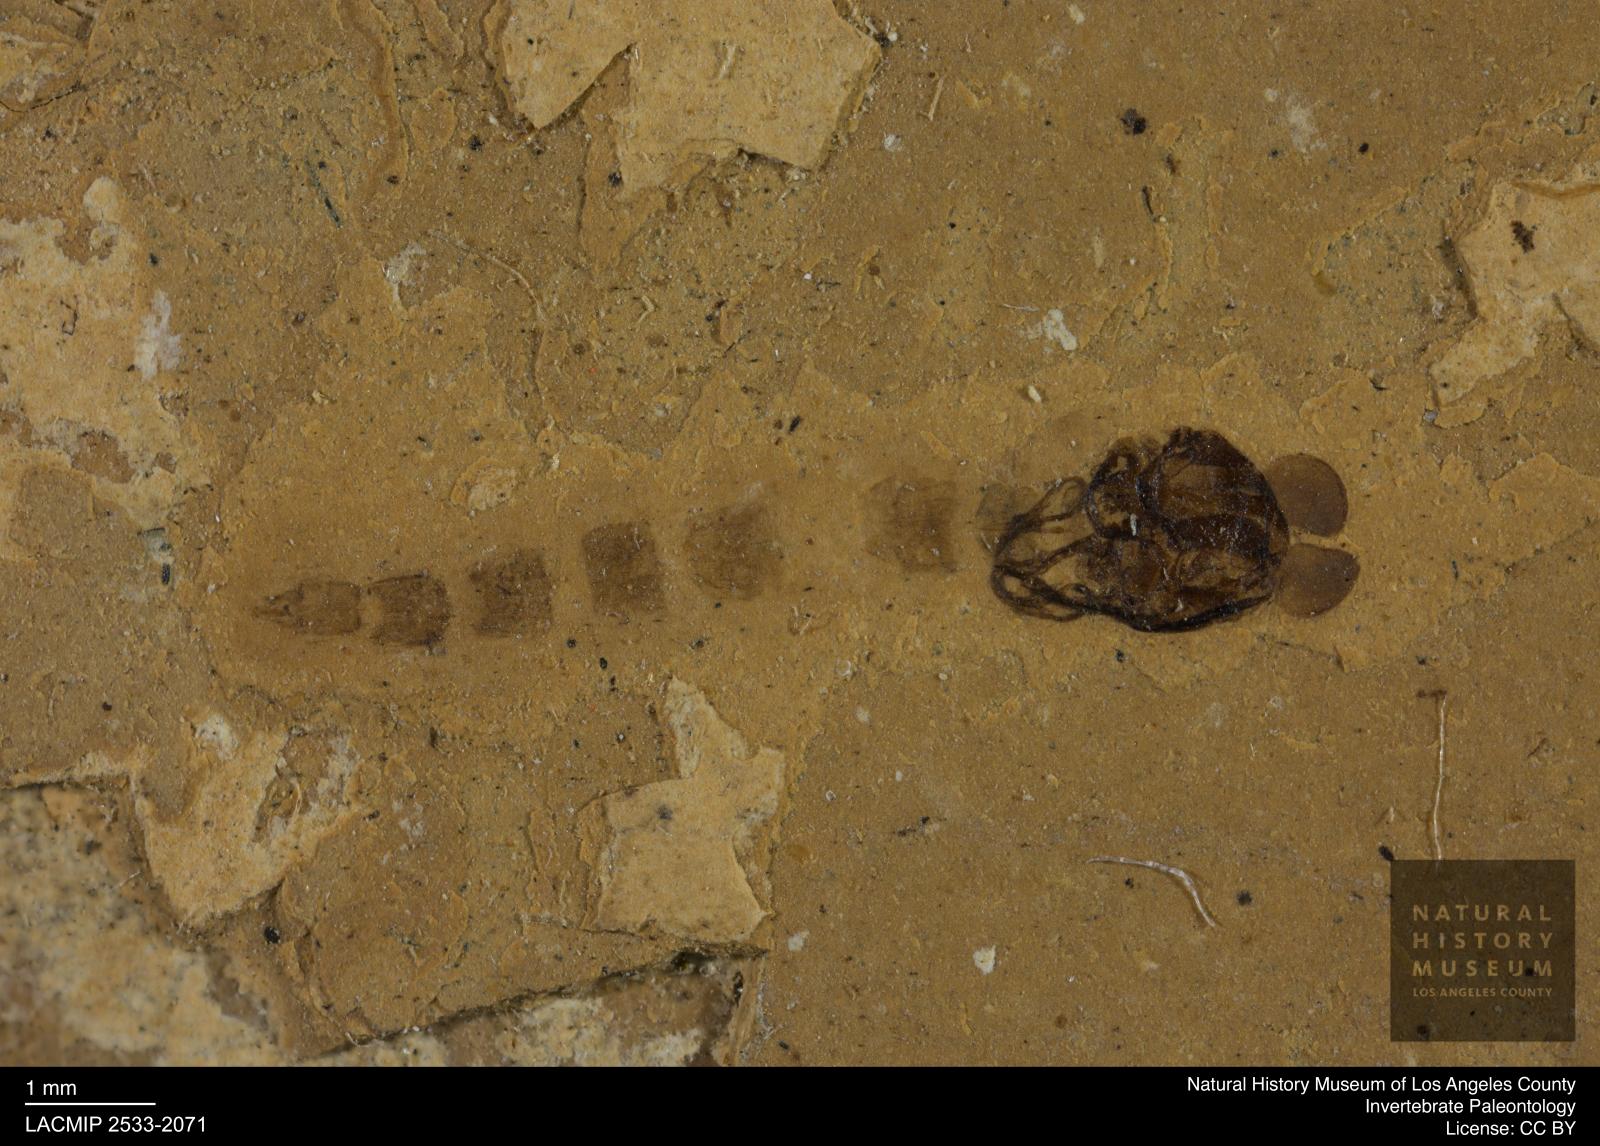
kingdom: Animalia
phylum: Arthropoda
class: Insecta
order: Diptera
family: Chironomidae
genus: Pelopiina
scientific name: Pelopiina
